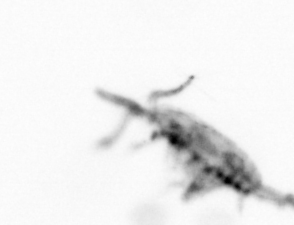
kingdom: Animalia
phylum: Arthropoda
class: Copepoda
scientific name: Copepoda
